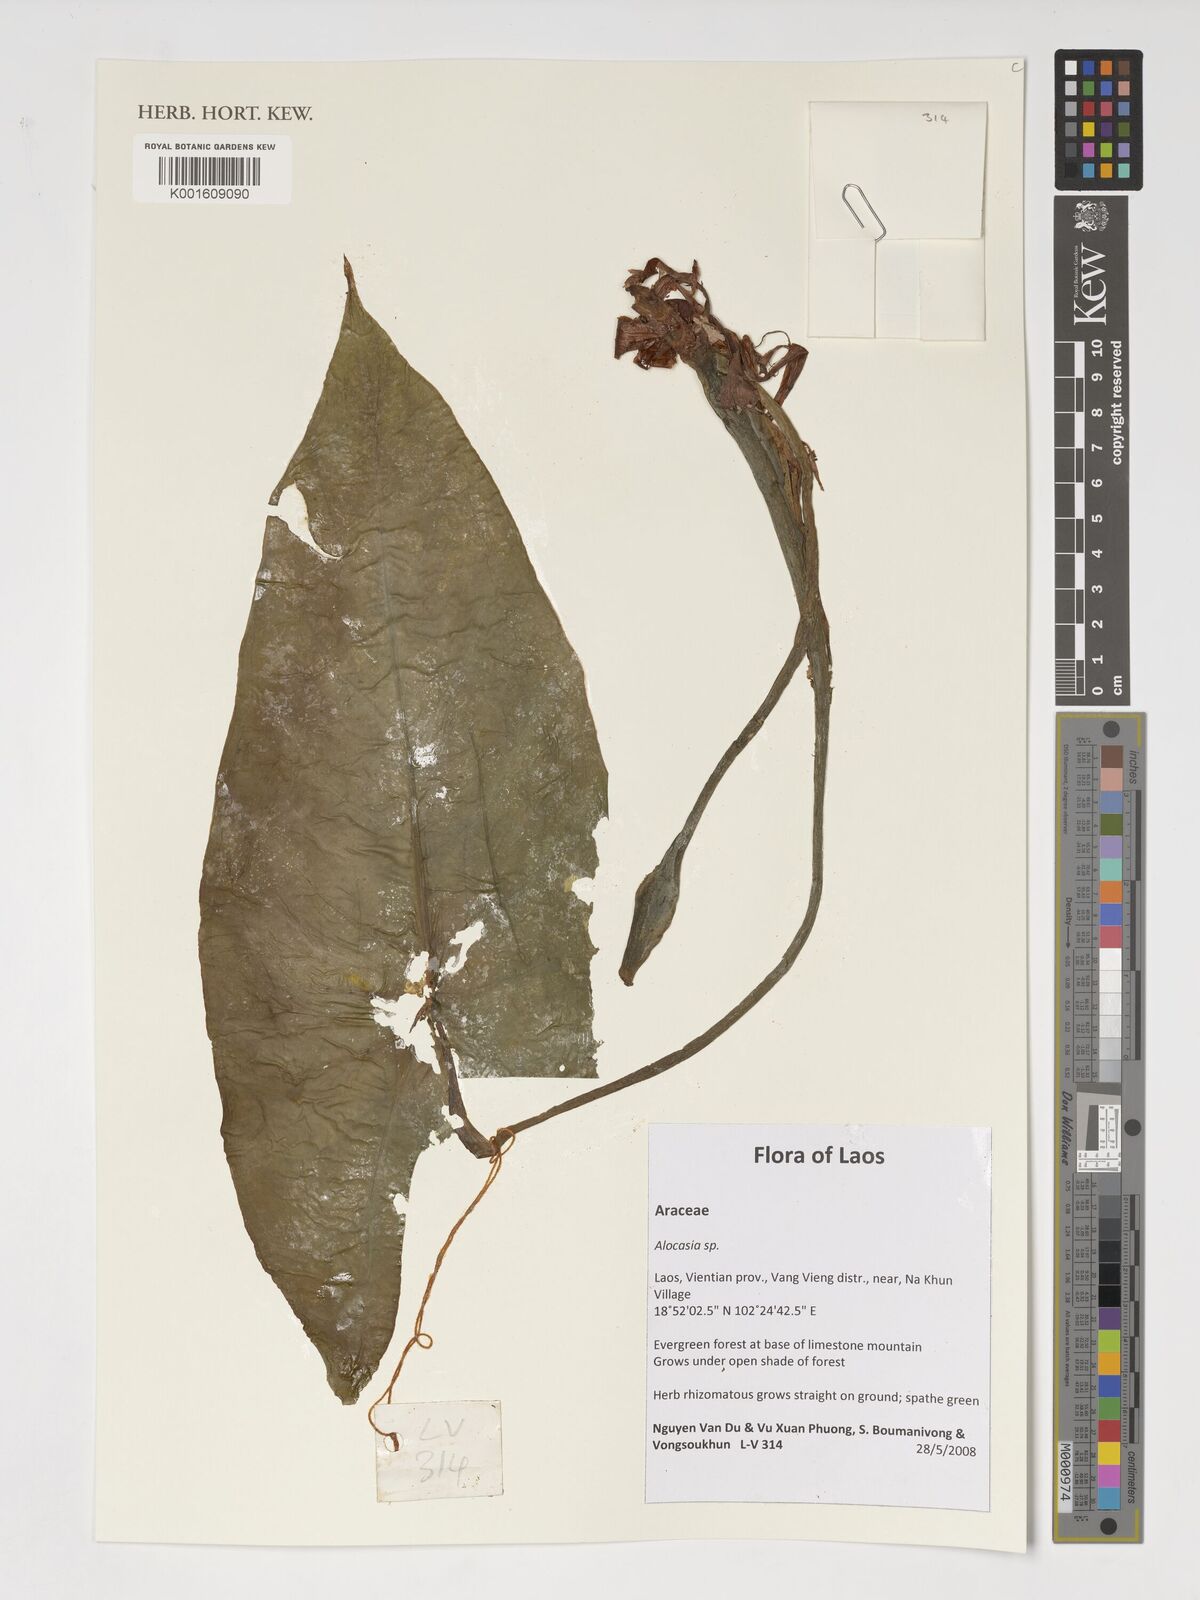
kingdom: Plantae
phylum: Tracheophyta
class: Liliopsida
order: Alismatales
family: Araceae
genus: Alocasia
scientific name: Alocasia
